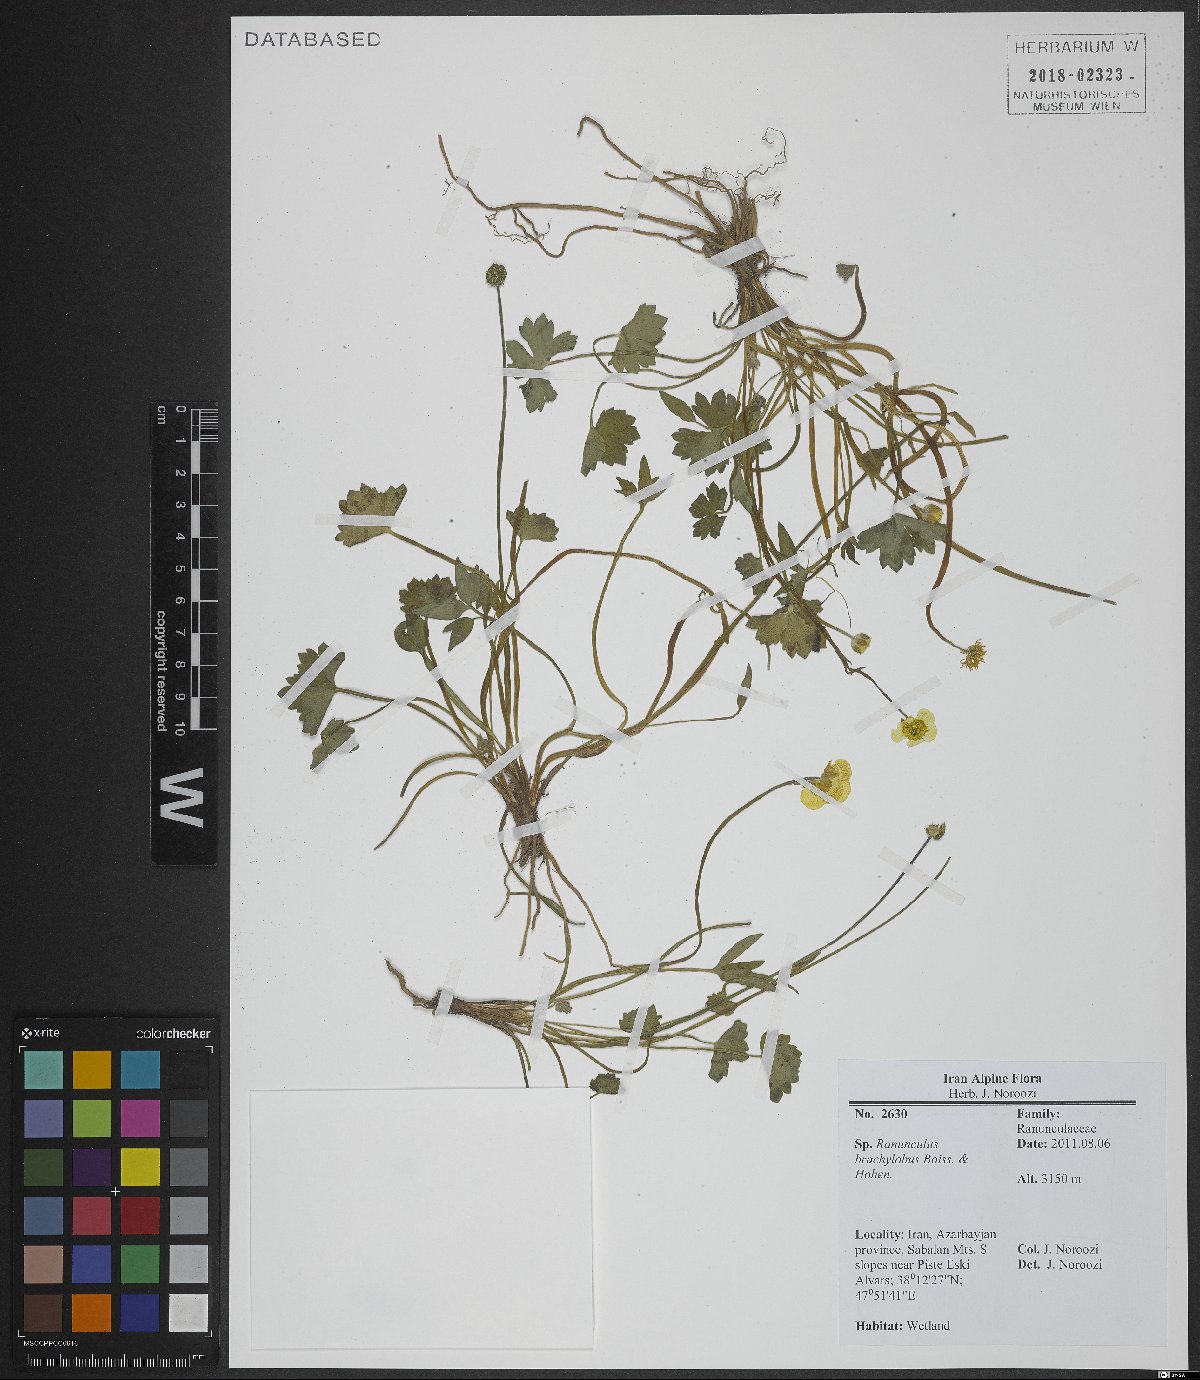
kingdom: Plantae
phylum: Tracheophyta
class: Magnoliopsida
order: Ranunculales
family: Ranunculaceae
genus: Ranunculus
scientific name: Ranunculus brachylobus
